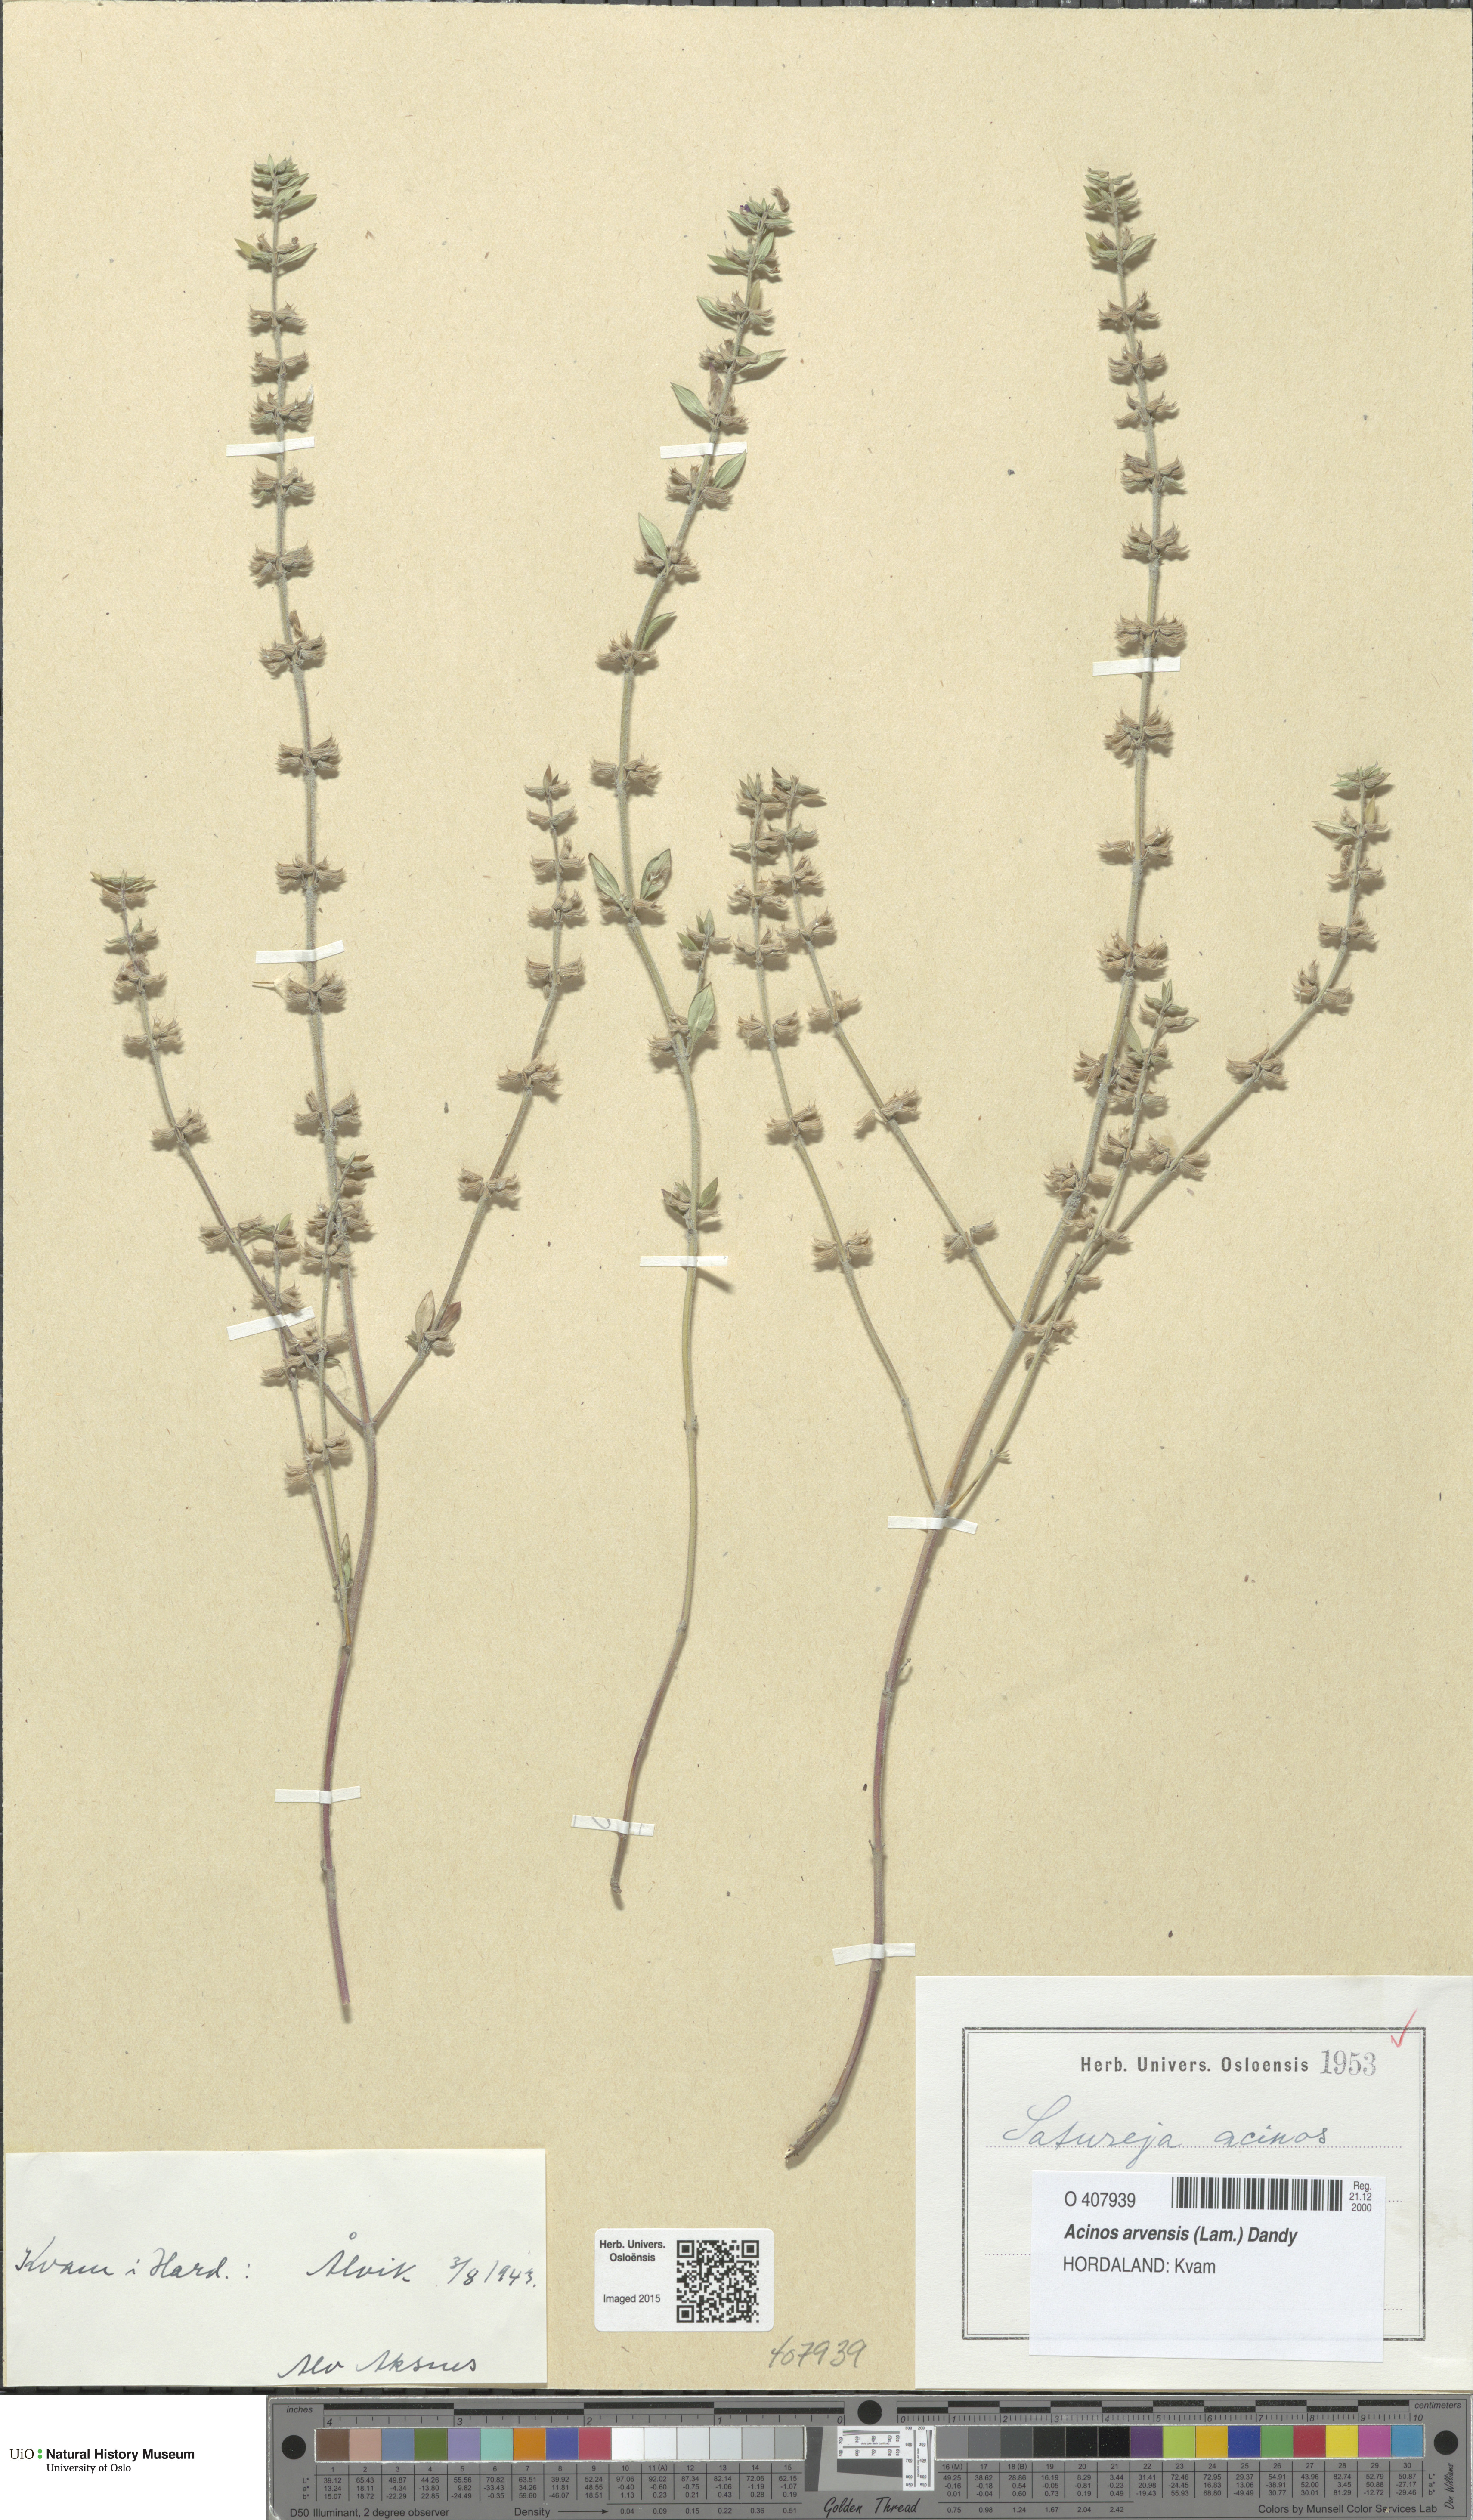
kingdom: Plantae
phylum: Tracheophyta
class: Magnoliopsida
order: Lamiales
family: Lamiaceae
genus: Clinopodium
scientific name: Clinopodium acinos
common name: Basil thyme
